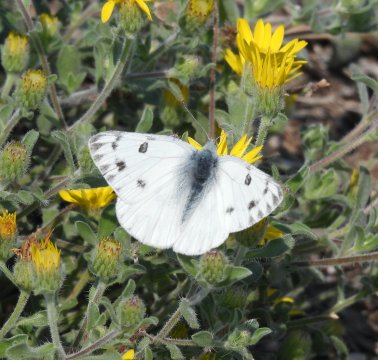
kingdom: Animalia
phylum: Arthropoda
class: Insecta
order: Lepidoptera
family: Pieridae
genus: Pontia
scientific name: Pontia occidentalis
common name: Western White
